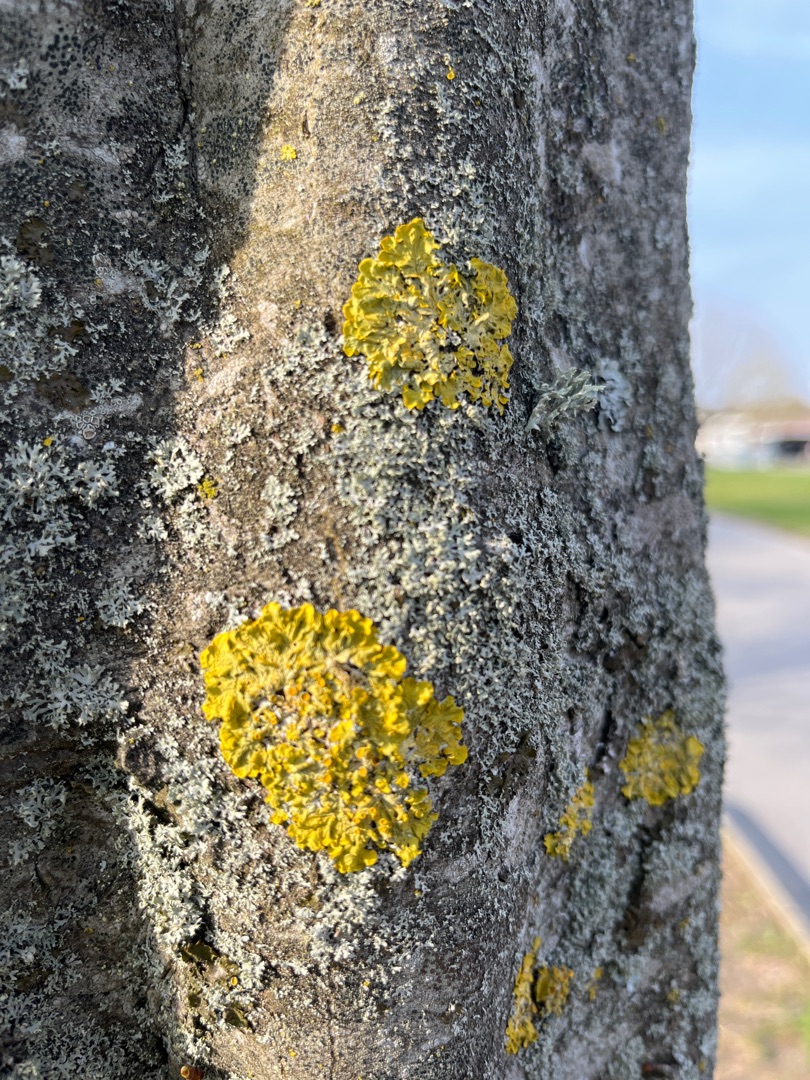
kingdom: Fungi
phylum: Ascomycota
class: Lecanoromycetes
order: Teloschistales
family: Teloschistaceae
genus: Xanthoria
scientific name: Xanthoria parietina
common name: Almindelig væggelav
